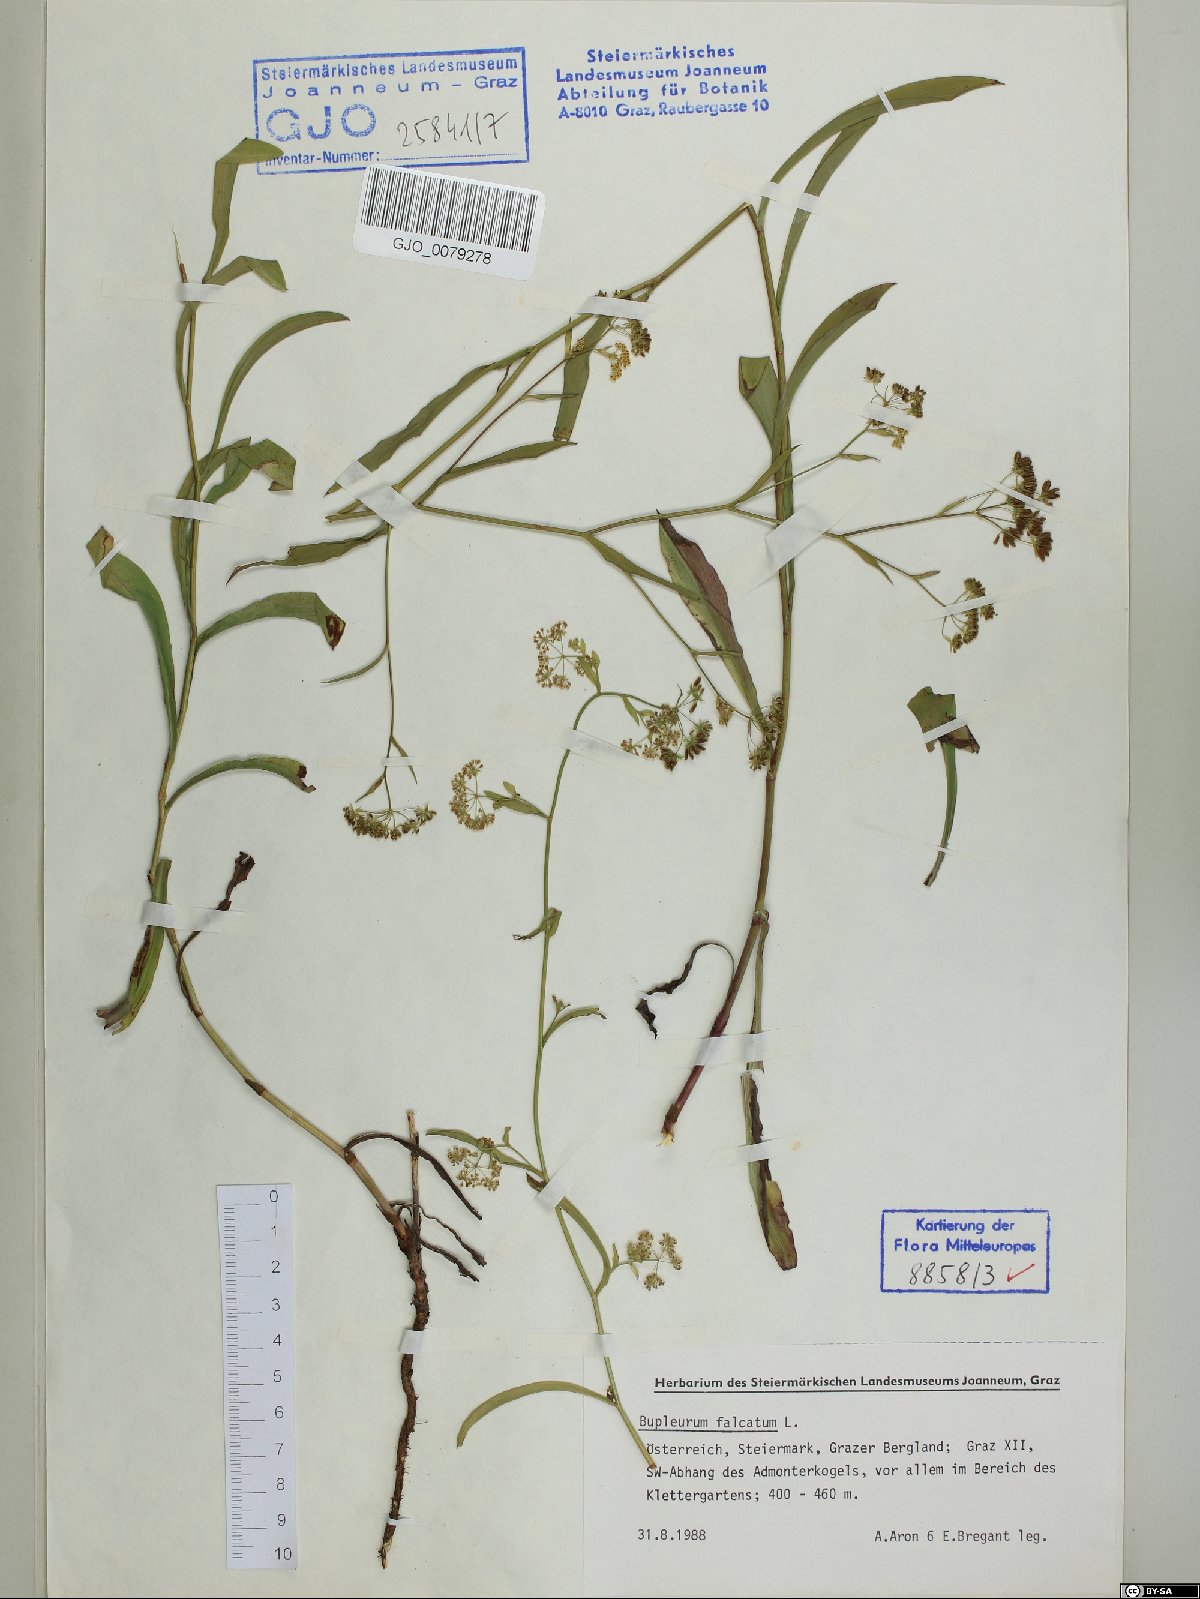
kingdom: Plantae
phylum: Tracheophyta
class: Magnoliopsida
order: Apiales
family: Apiaceae
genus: Bupleurum
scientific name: Bupleurum falcatum
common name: Sickle-leaved hare's-ear
